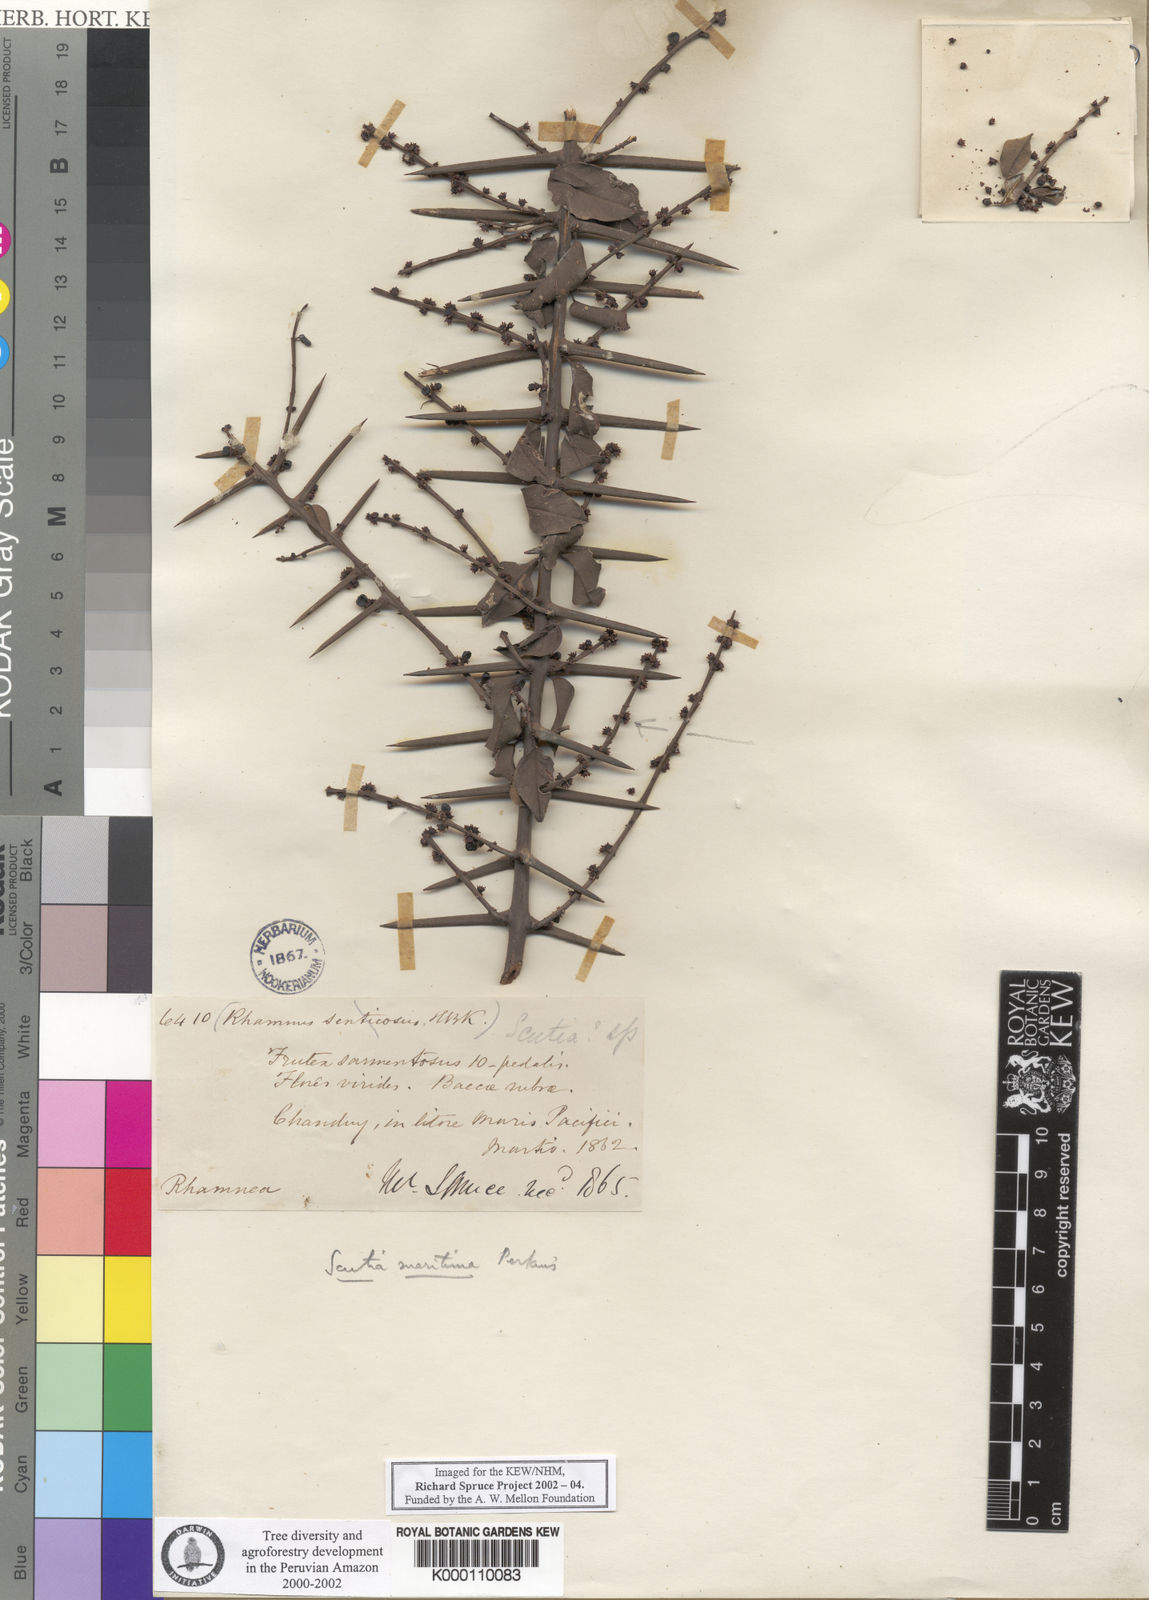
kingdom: Plantae
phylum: Tracheophyta
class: Magnoliopsida
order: Rosales
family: Rhamnaceae
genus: Scutia
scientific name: Scutia spicata
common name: Spiny bush
